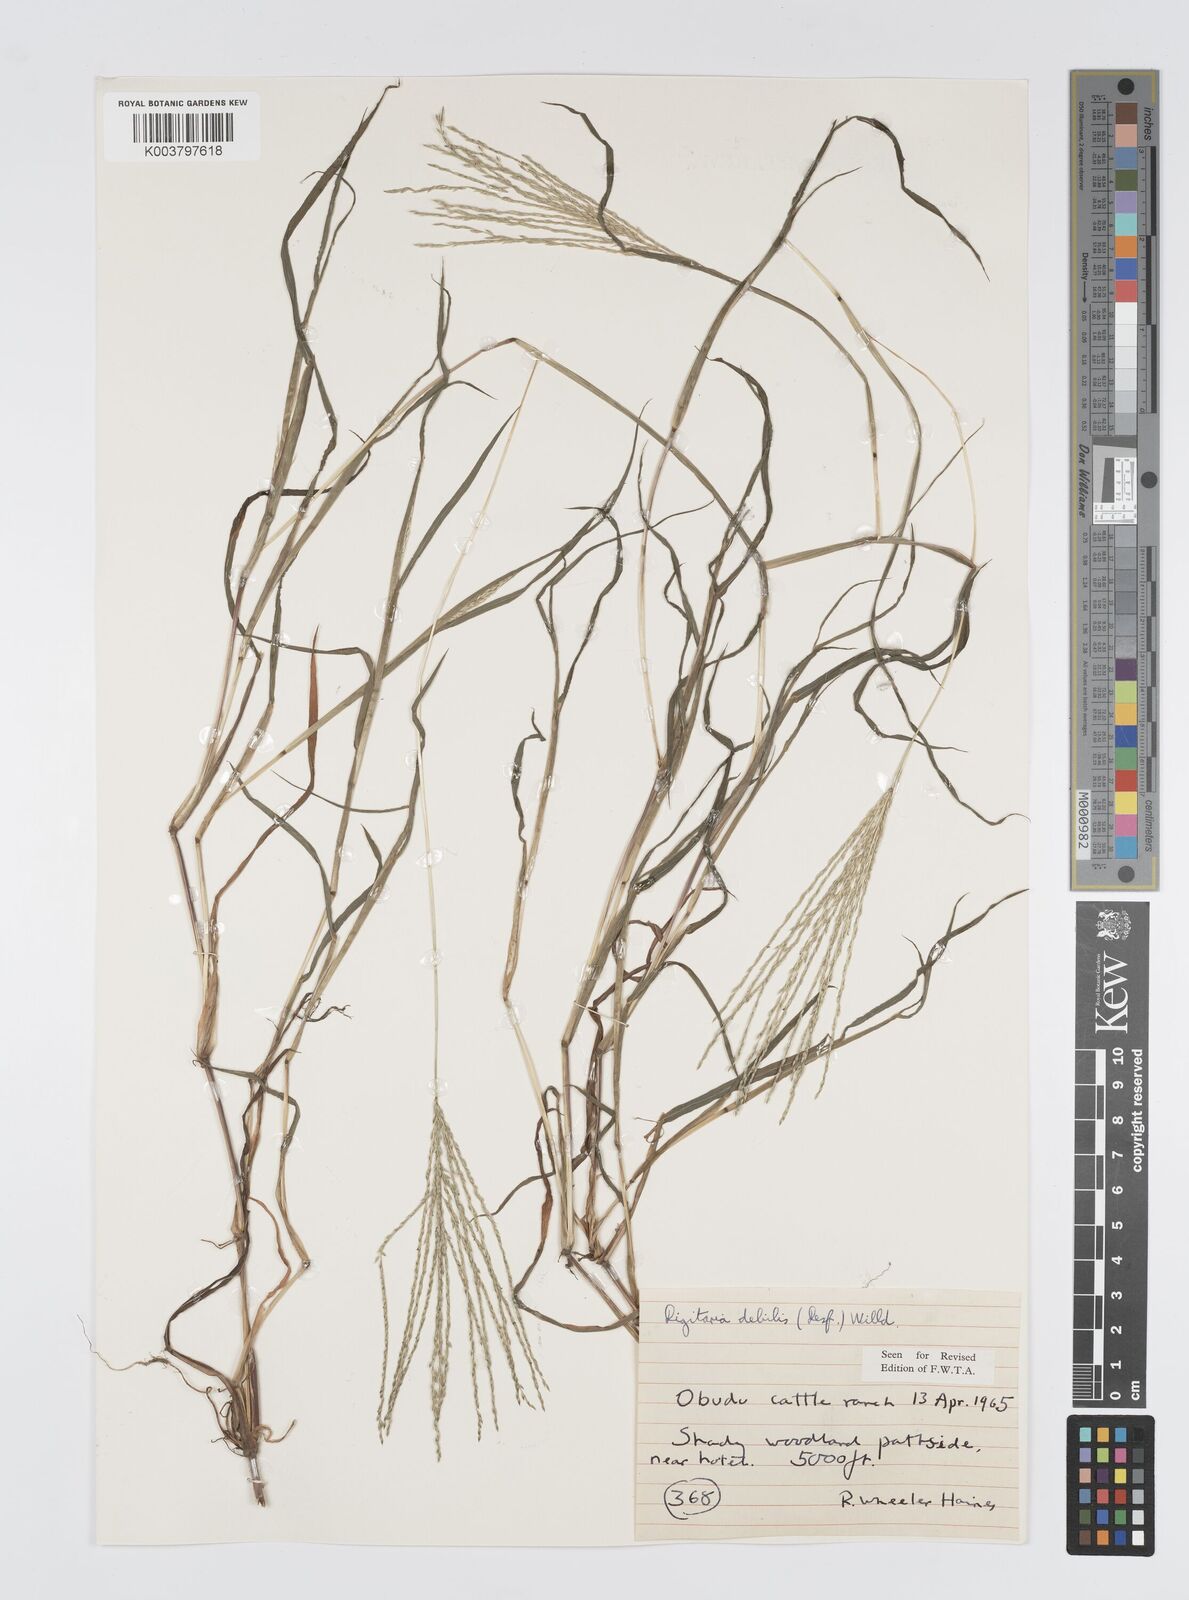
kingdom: Plantae
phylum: Tracheophyta
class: Liliopsida
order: Poales
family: Poaceae
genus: Digitaria
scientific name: Digitaria debilis
